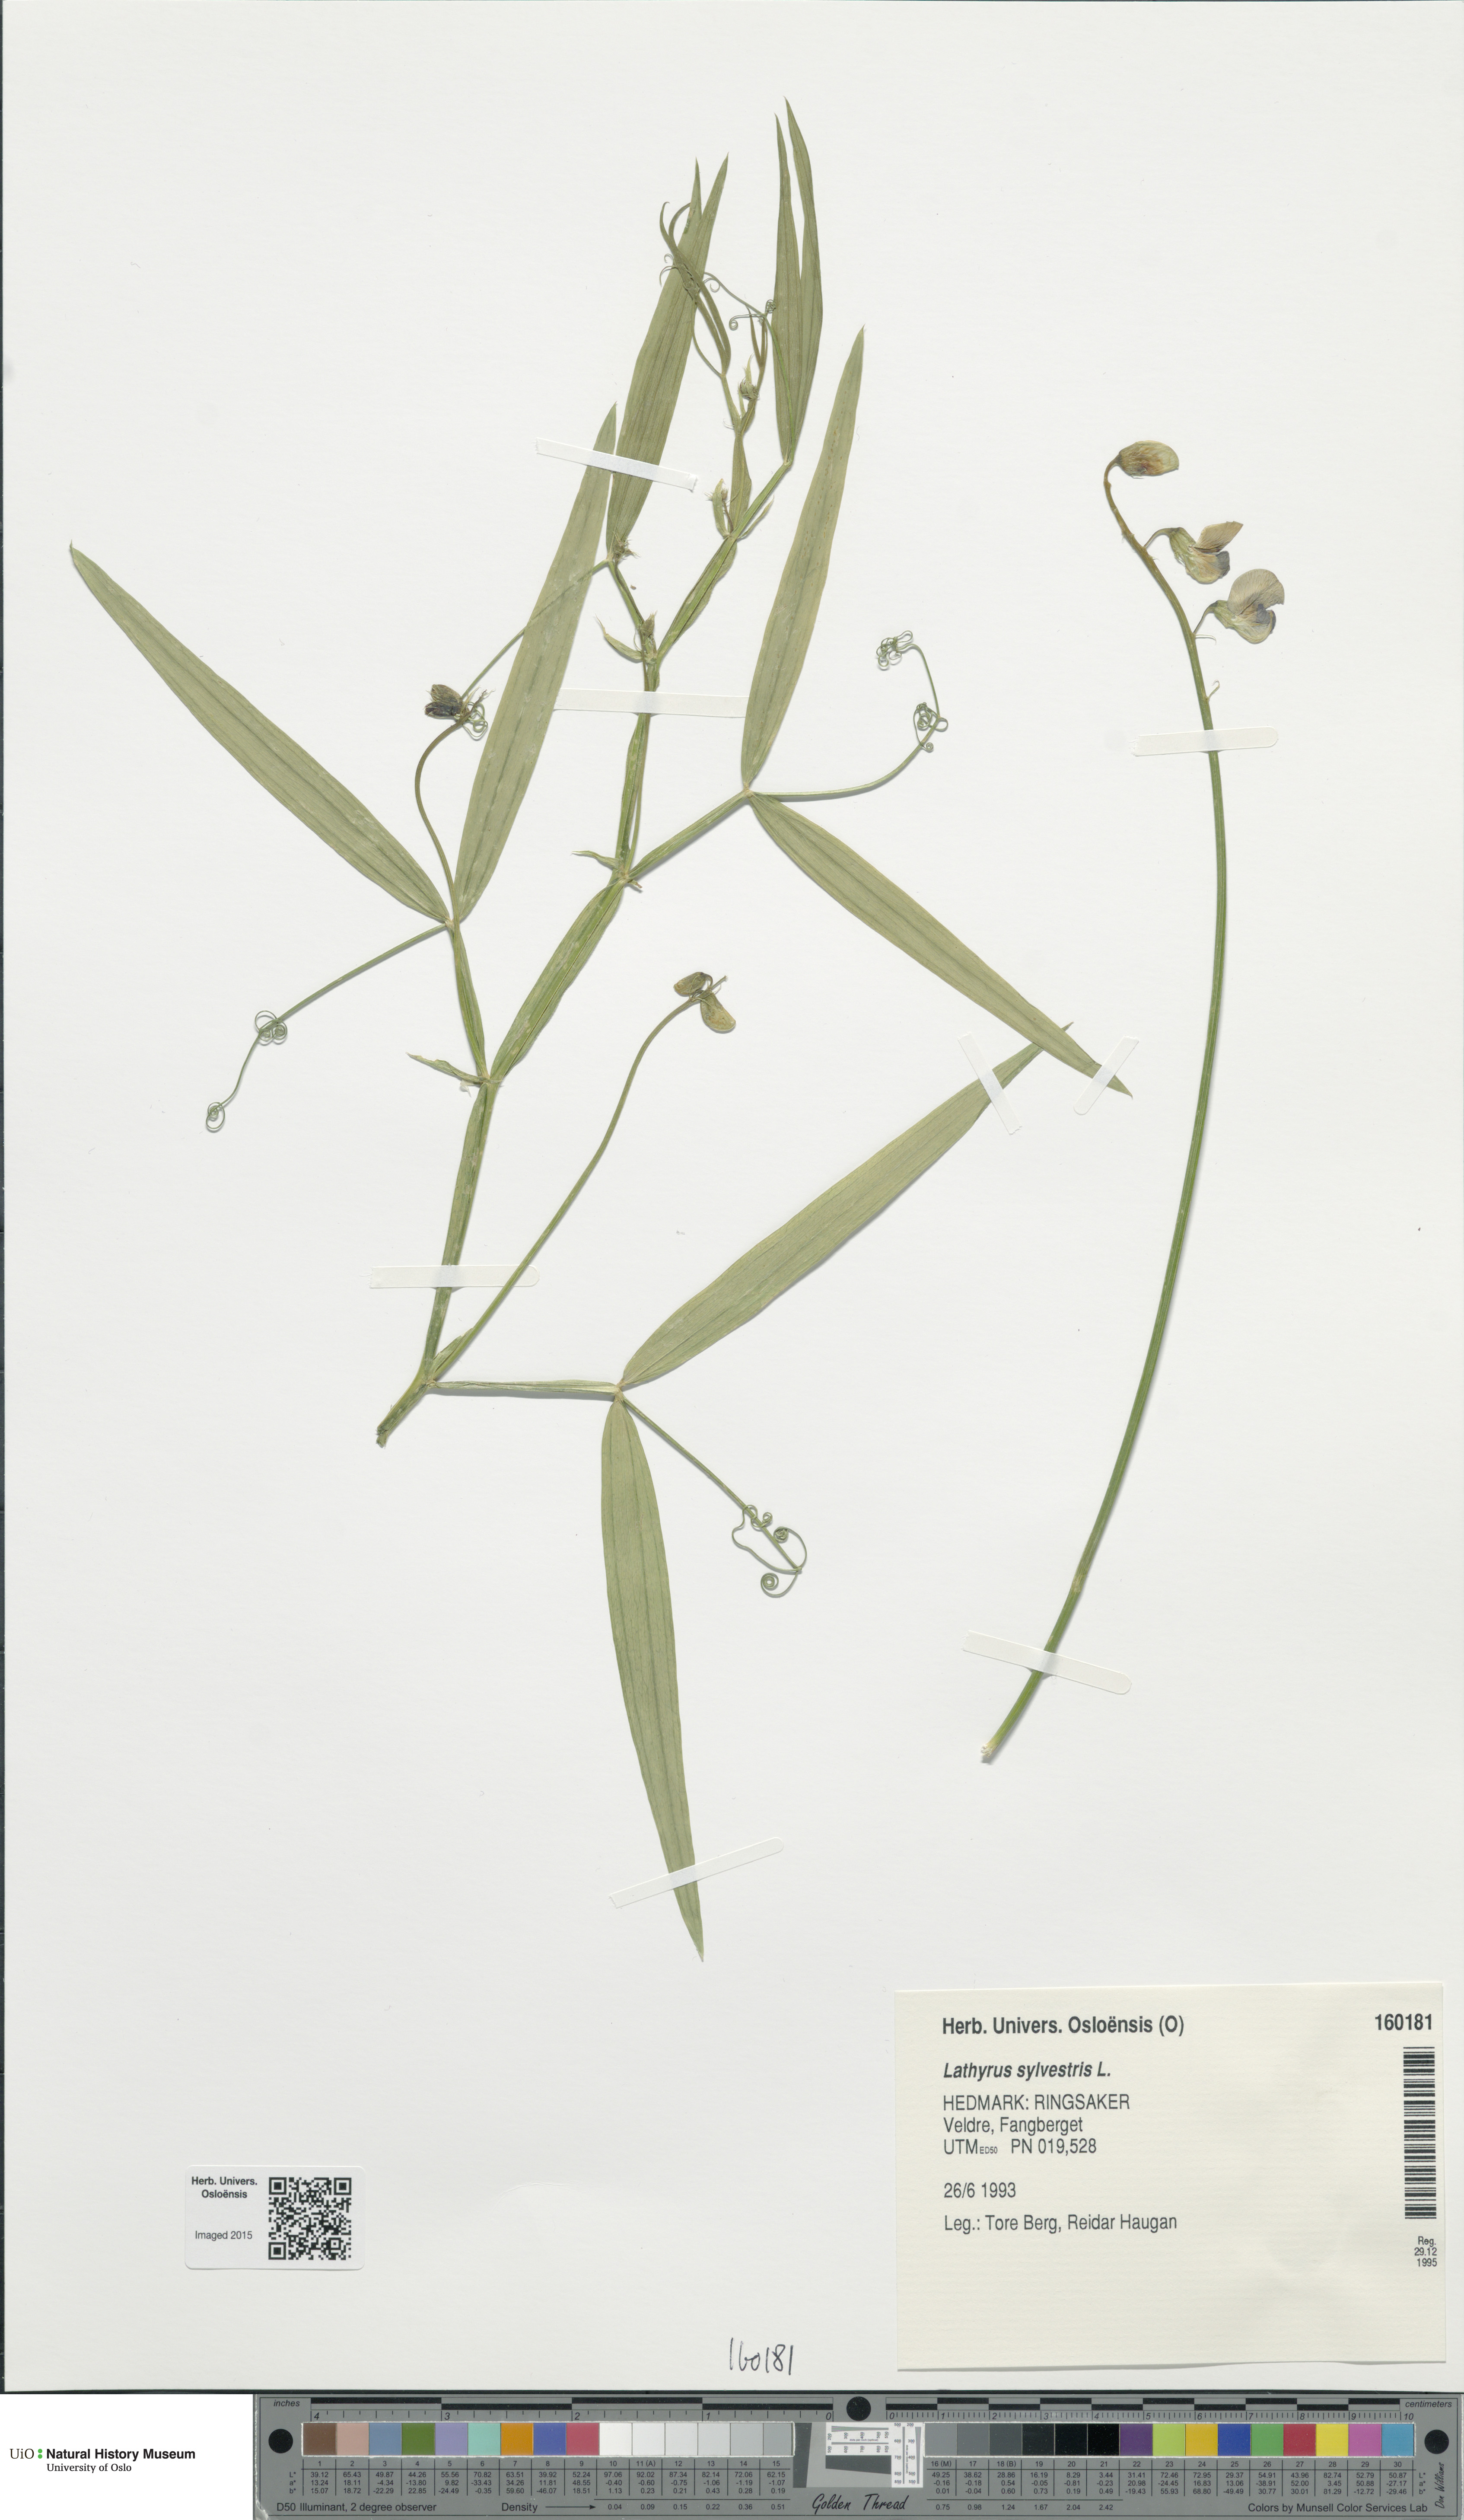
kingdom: Plantae
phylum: Tracheophyta
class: Magnoliopsida
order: Fabales
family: Fabaceae
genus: Lathyrus
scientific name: Lathyrus sylvestris
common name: Flat pea
